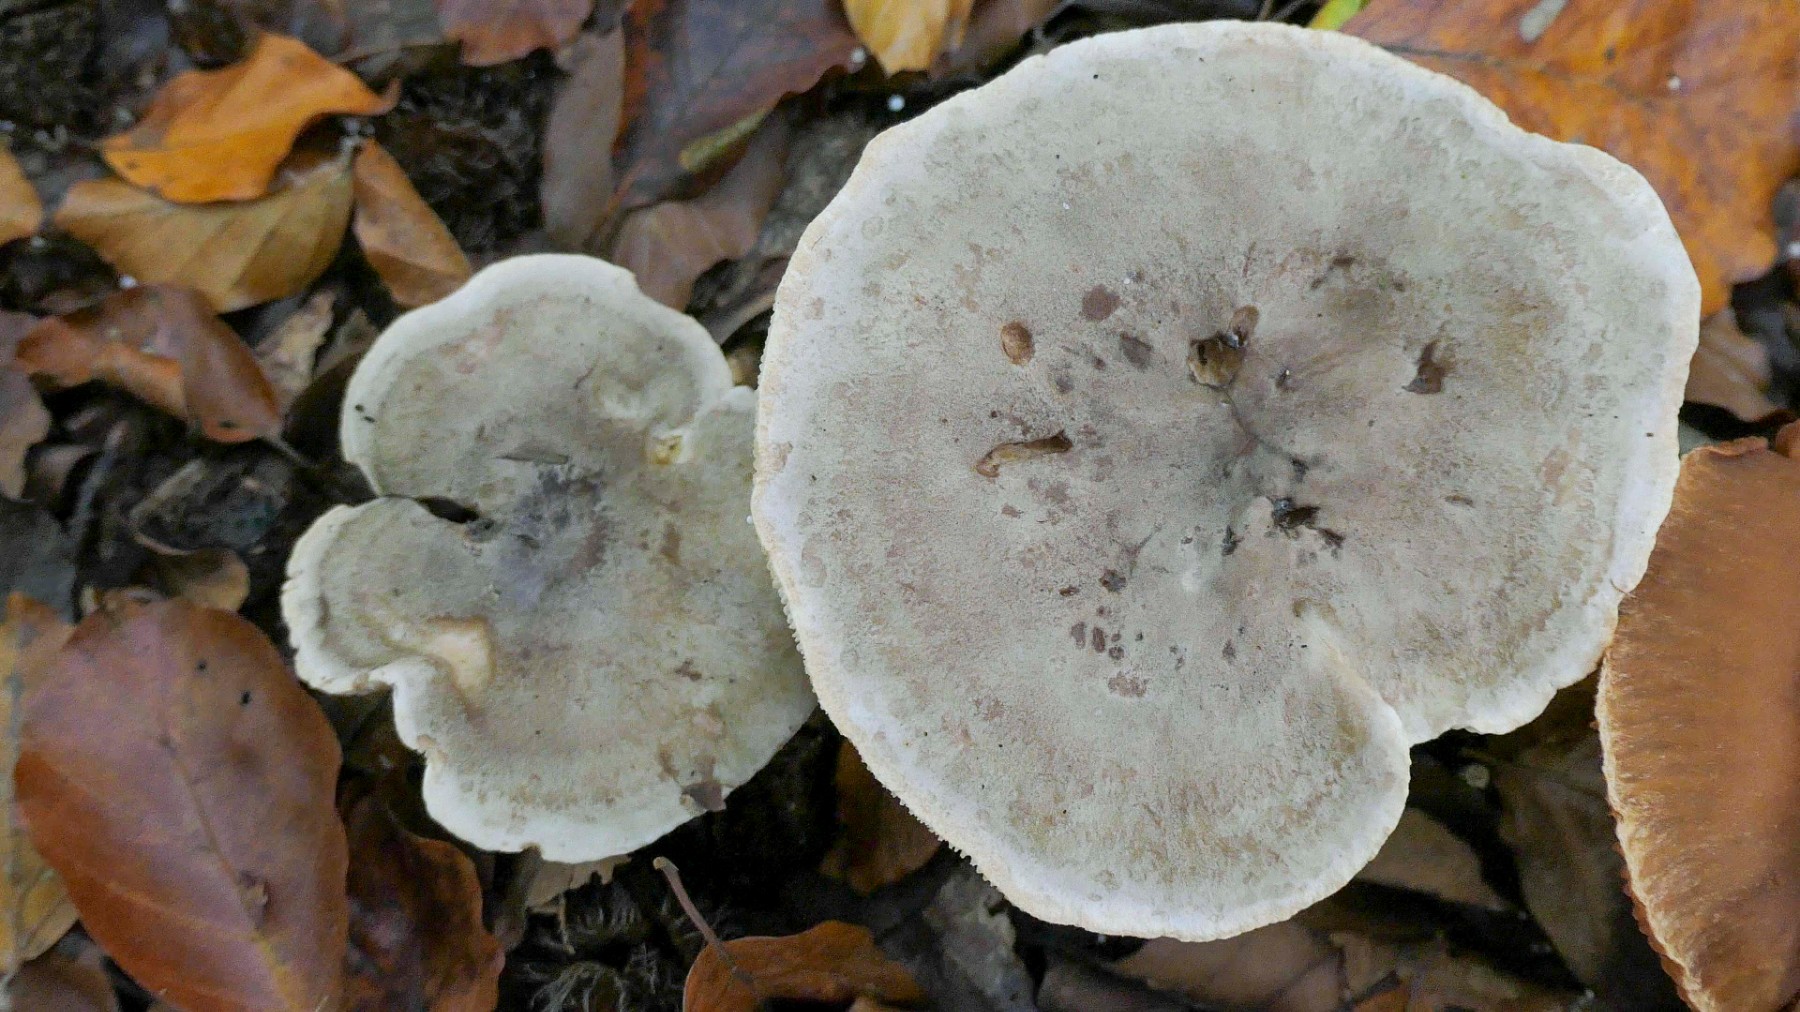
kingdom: Fungi
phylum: Basidiomycota
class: Agaricomycetes
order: Russulales
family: Russulaceae
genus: Lactarius
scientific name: Lactarius fluens
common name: lysrandet mælkehat
